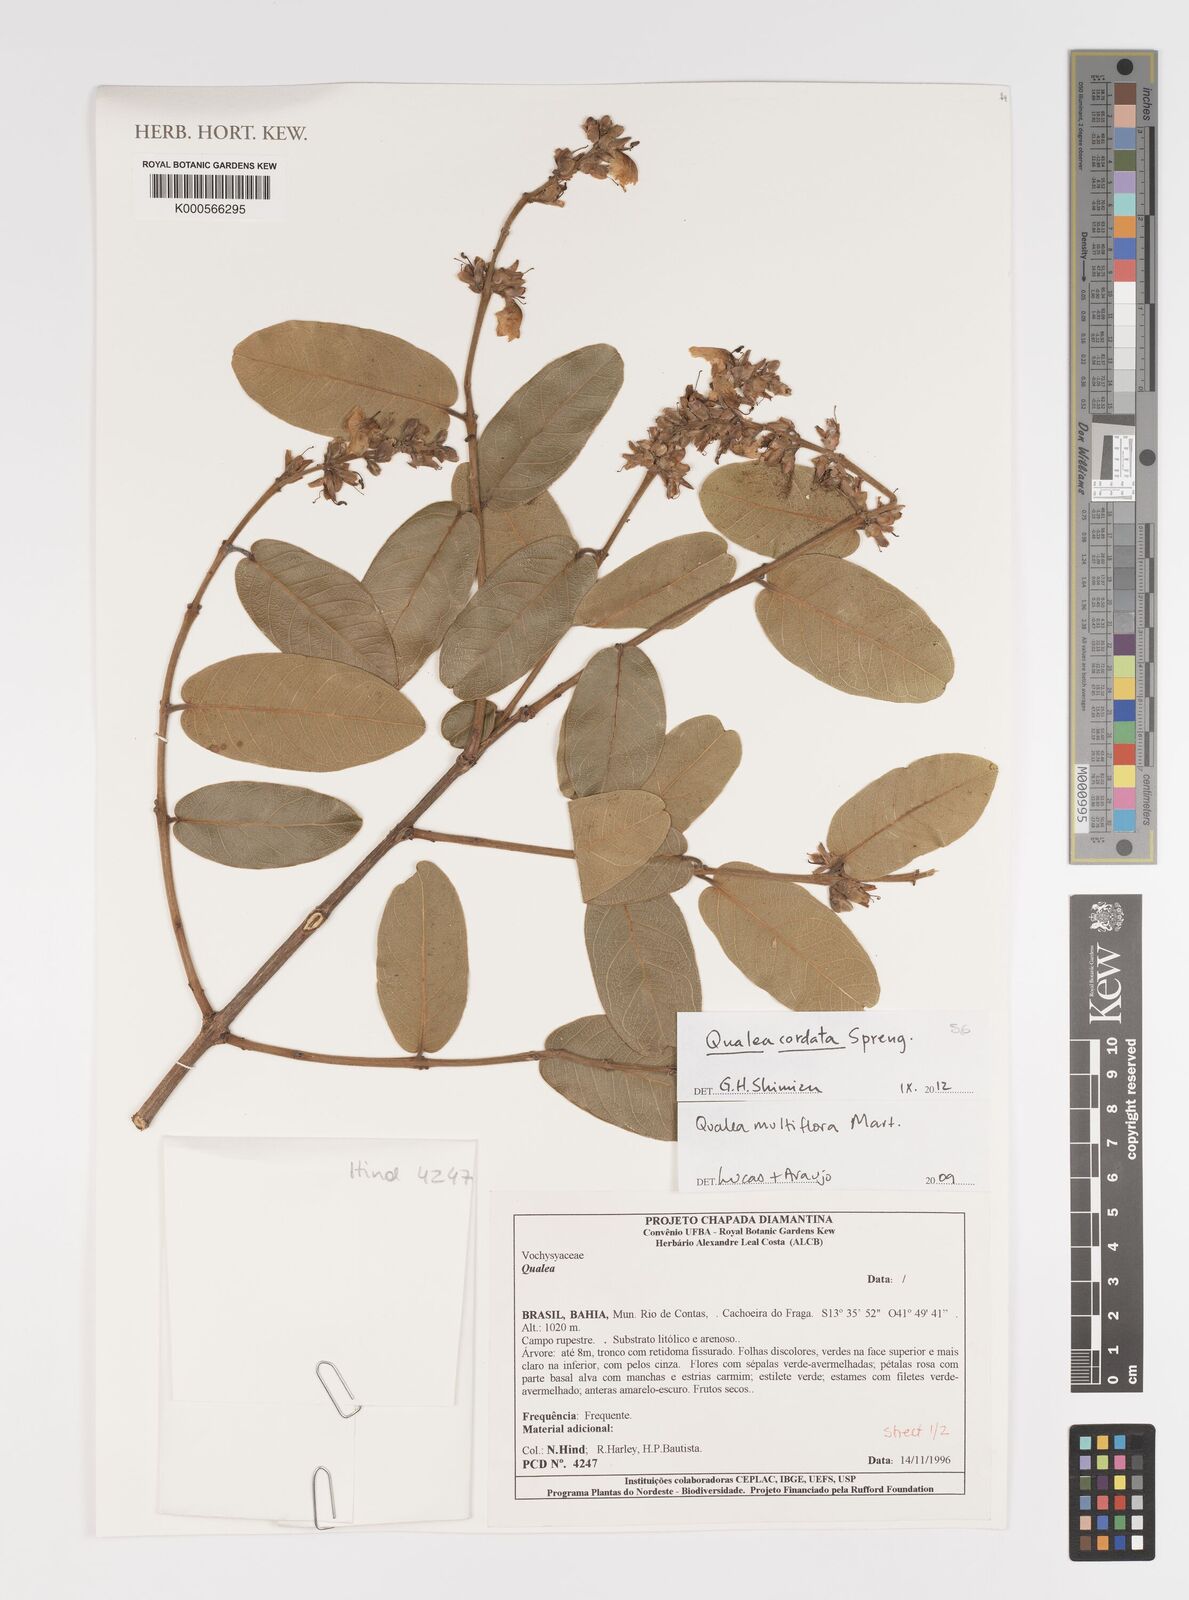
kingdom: Plantae
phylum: Tracheophyta
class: Magnoliopsida
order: Myrtales
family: Vochysiaceae
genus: Qualea
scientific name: Qualea multiflora
